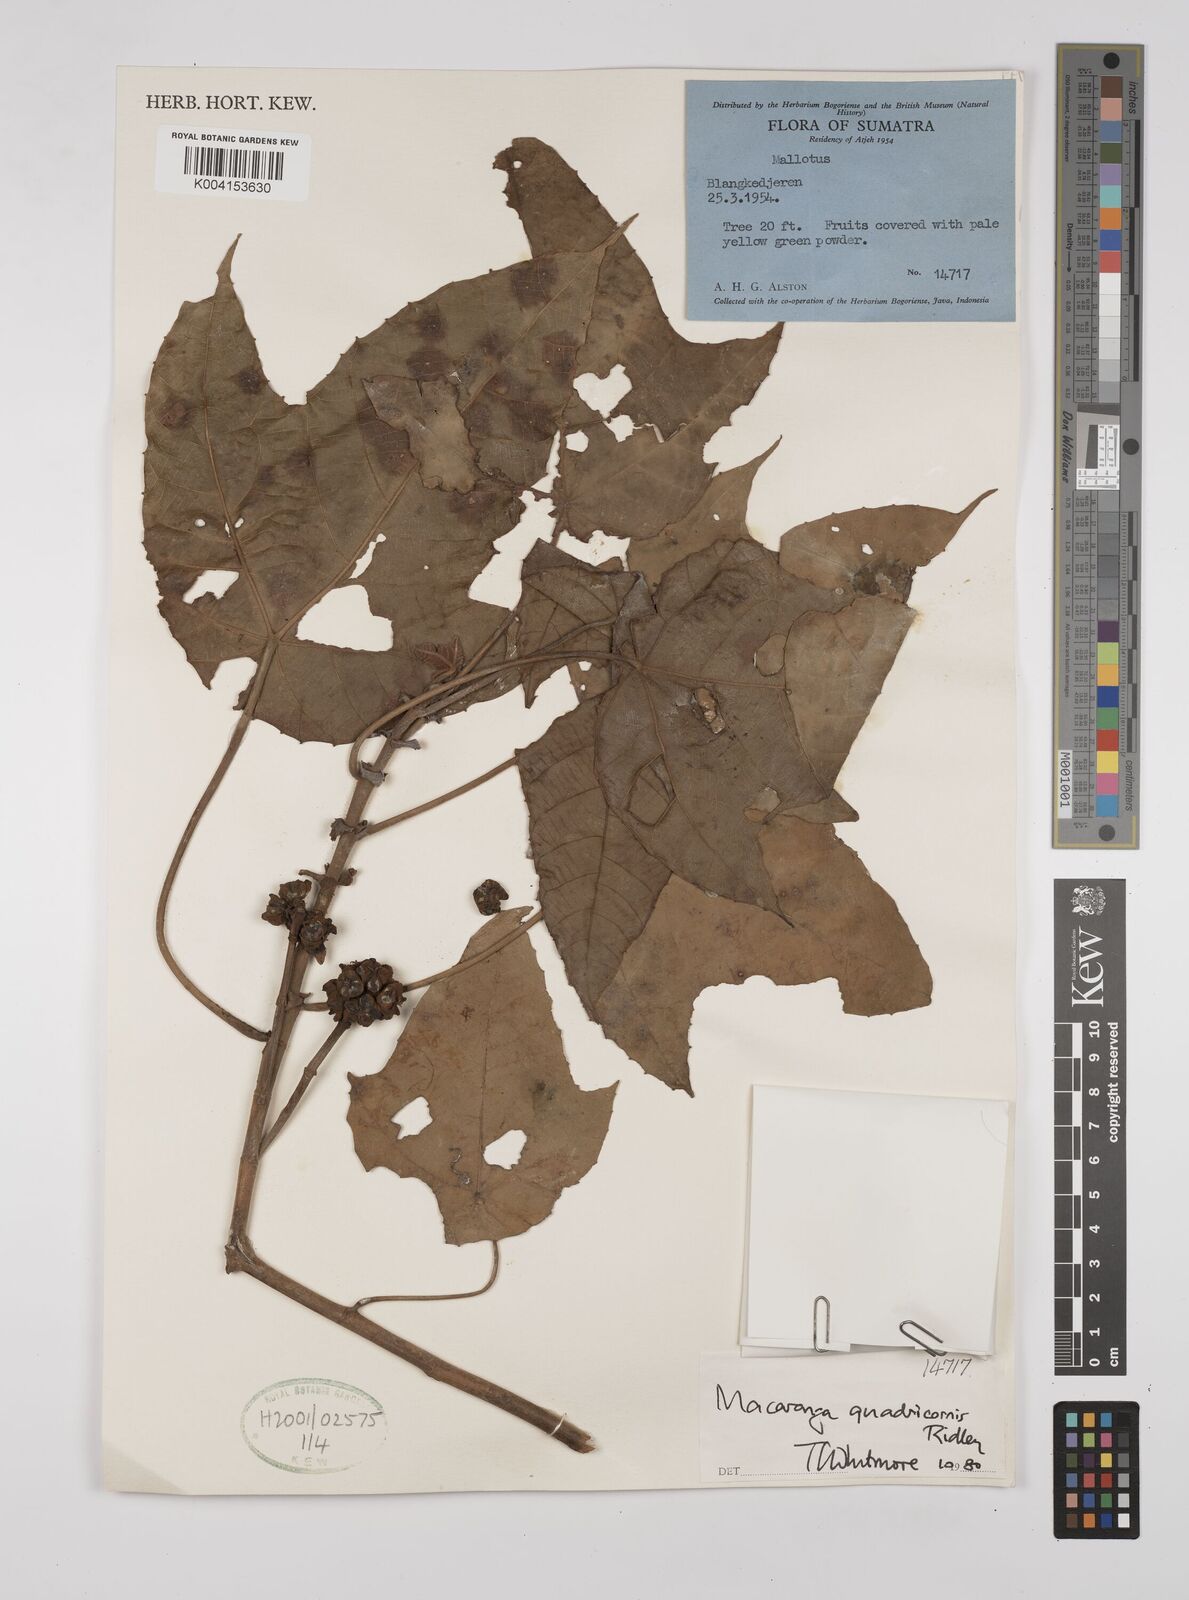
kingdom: Plantae
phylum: Tracheophyta
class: Magnoliopsida
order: Malpighiales
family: Euphorbiaceae
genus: Macaranga
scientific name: Macaranga triloba
